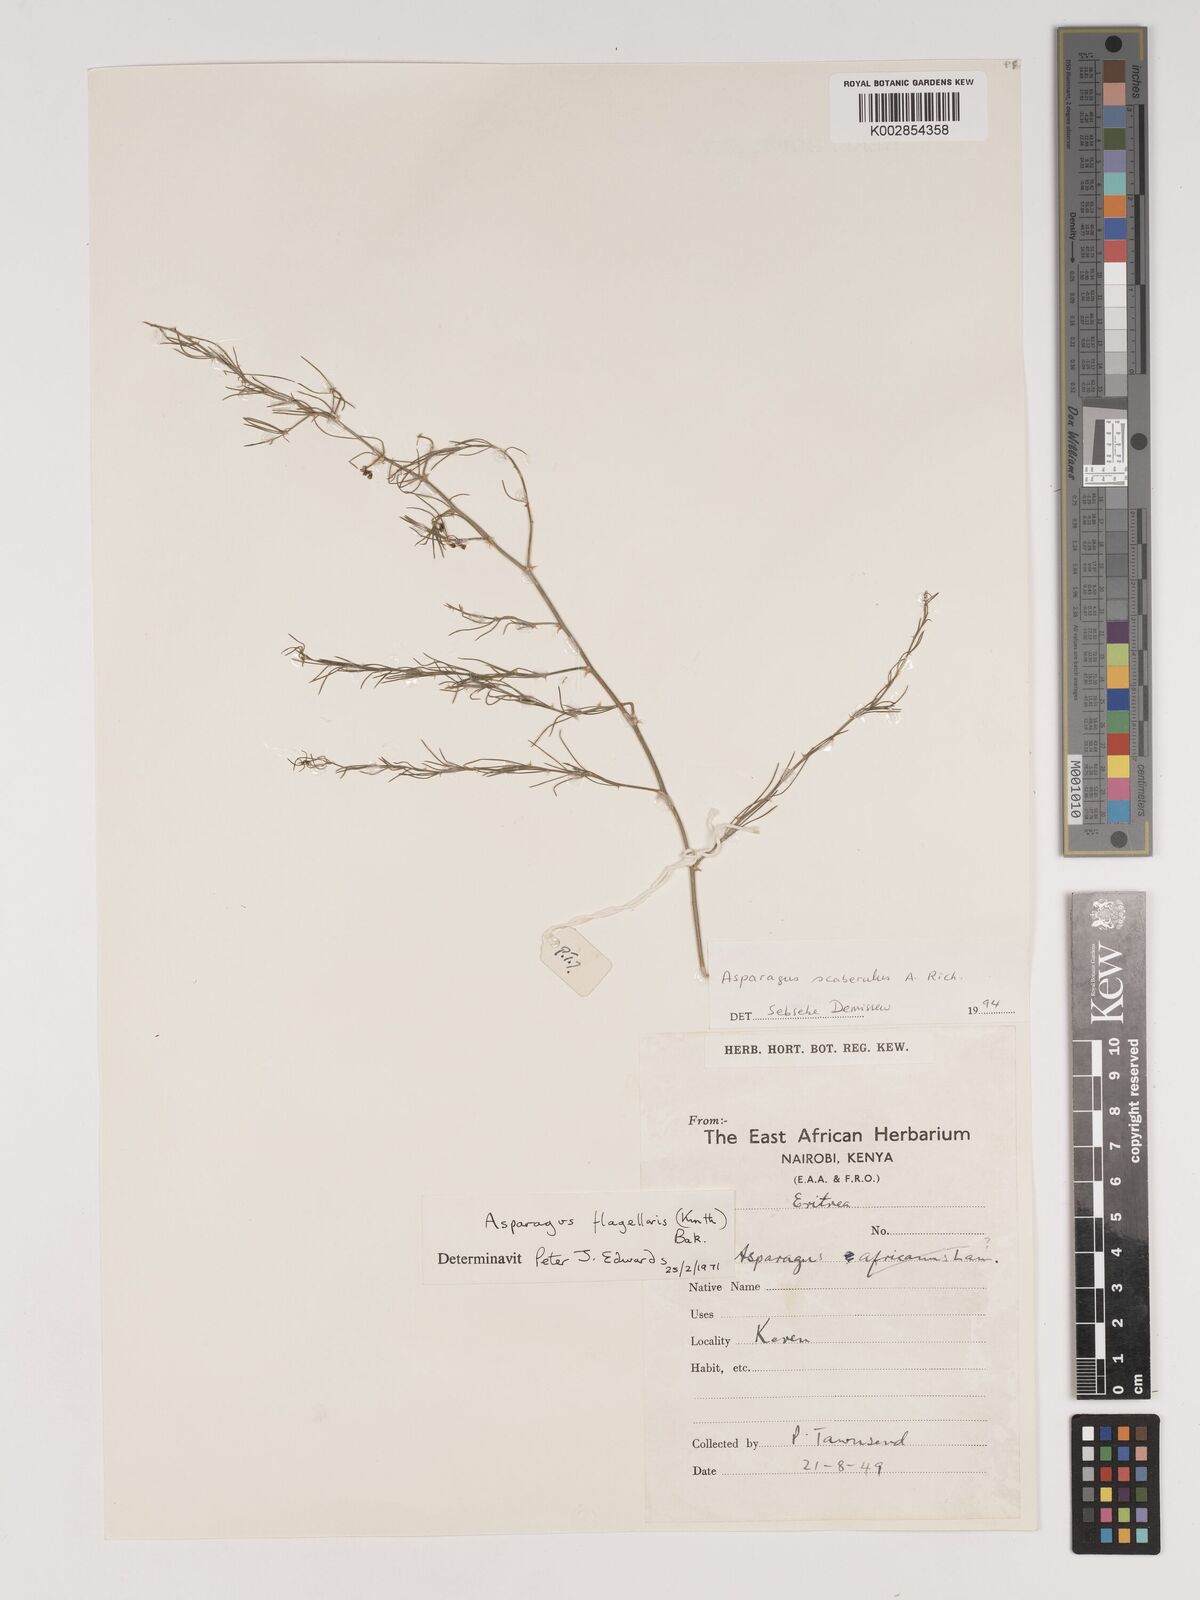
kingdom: Plantae
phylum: Tracheophyta
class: Liliopsida
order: Asparagales
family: Asparagaceae
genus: Asparagus
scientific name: Asparagus scaberulus
